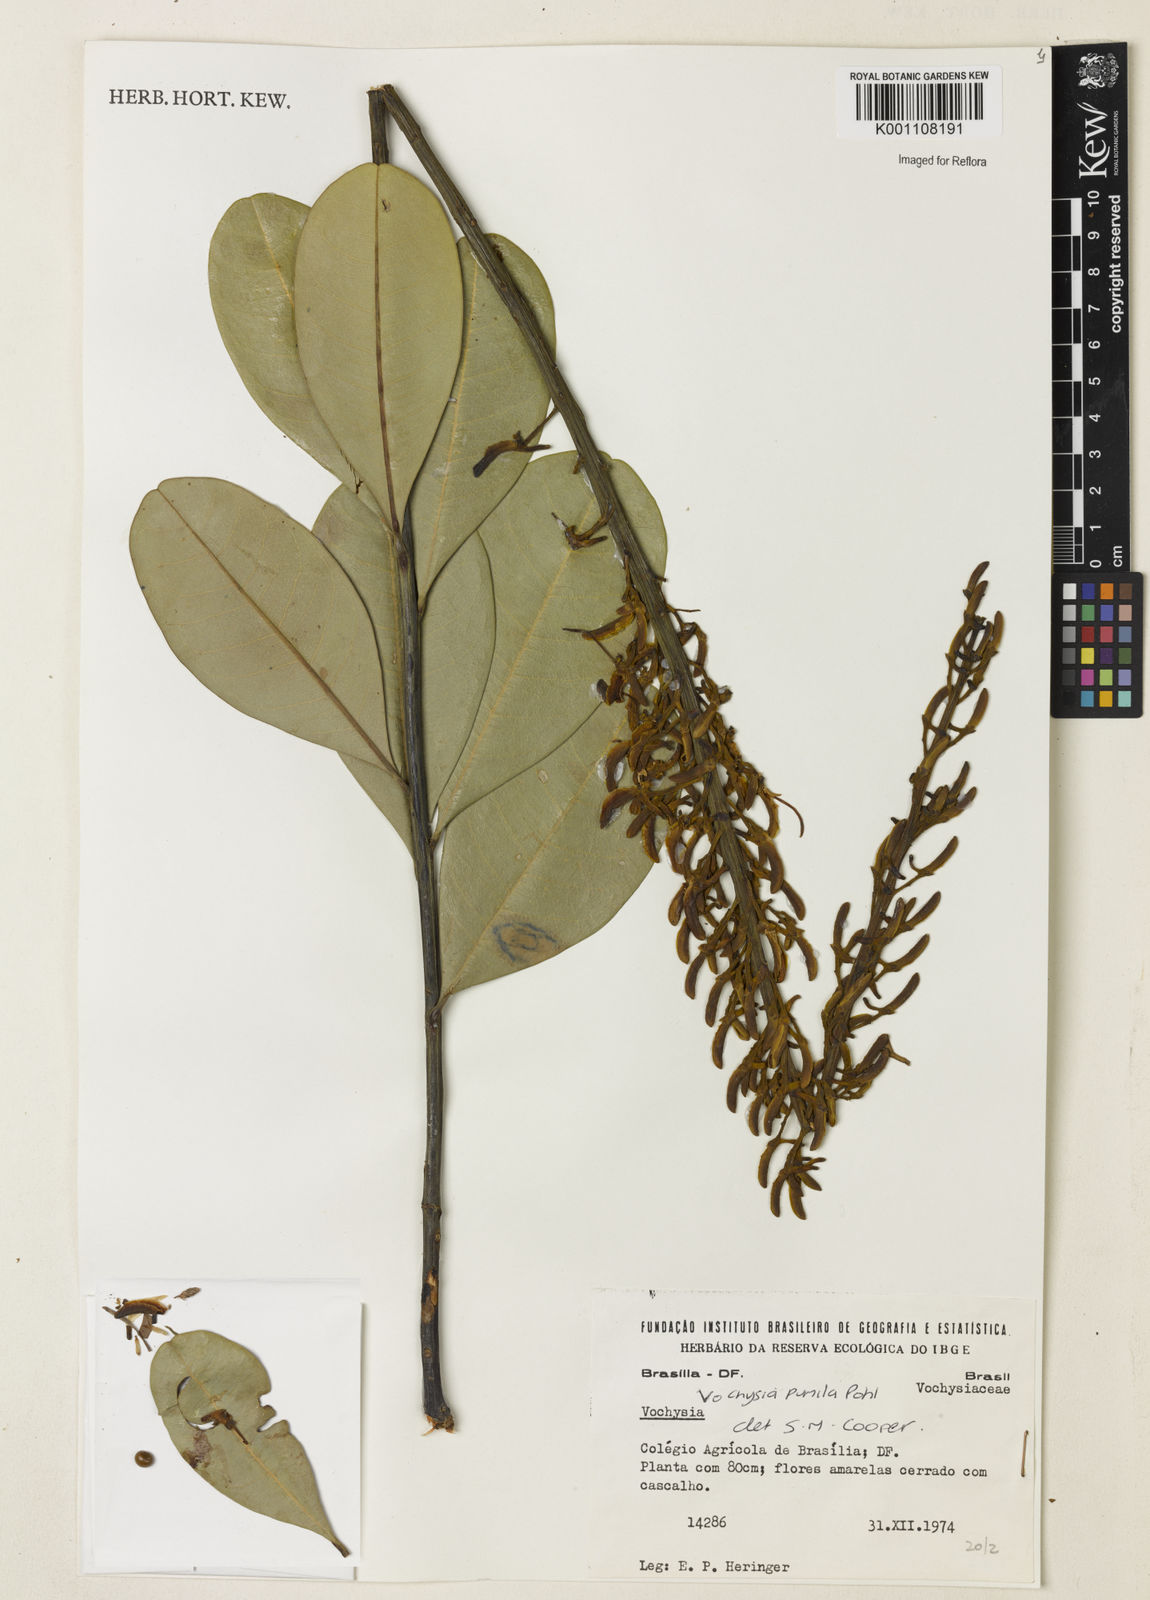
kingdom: Plantae
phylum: Tracheophyta
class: Magnoliopsida
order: Myrtales
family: Vochysiaceae
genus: Vochysia
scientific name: Vochysia pumila
